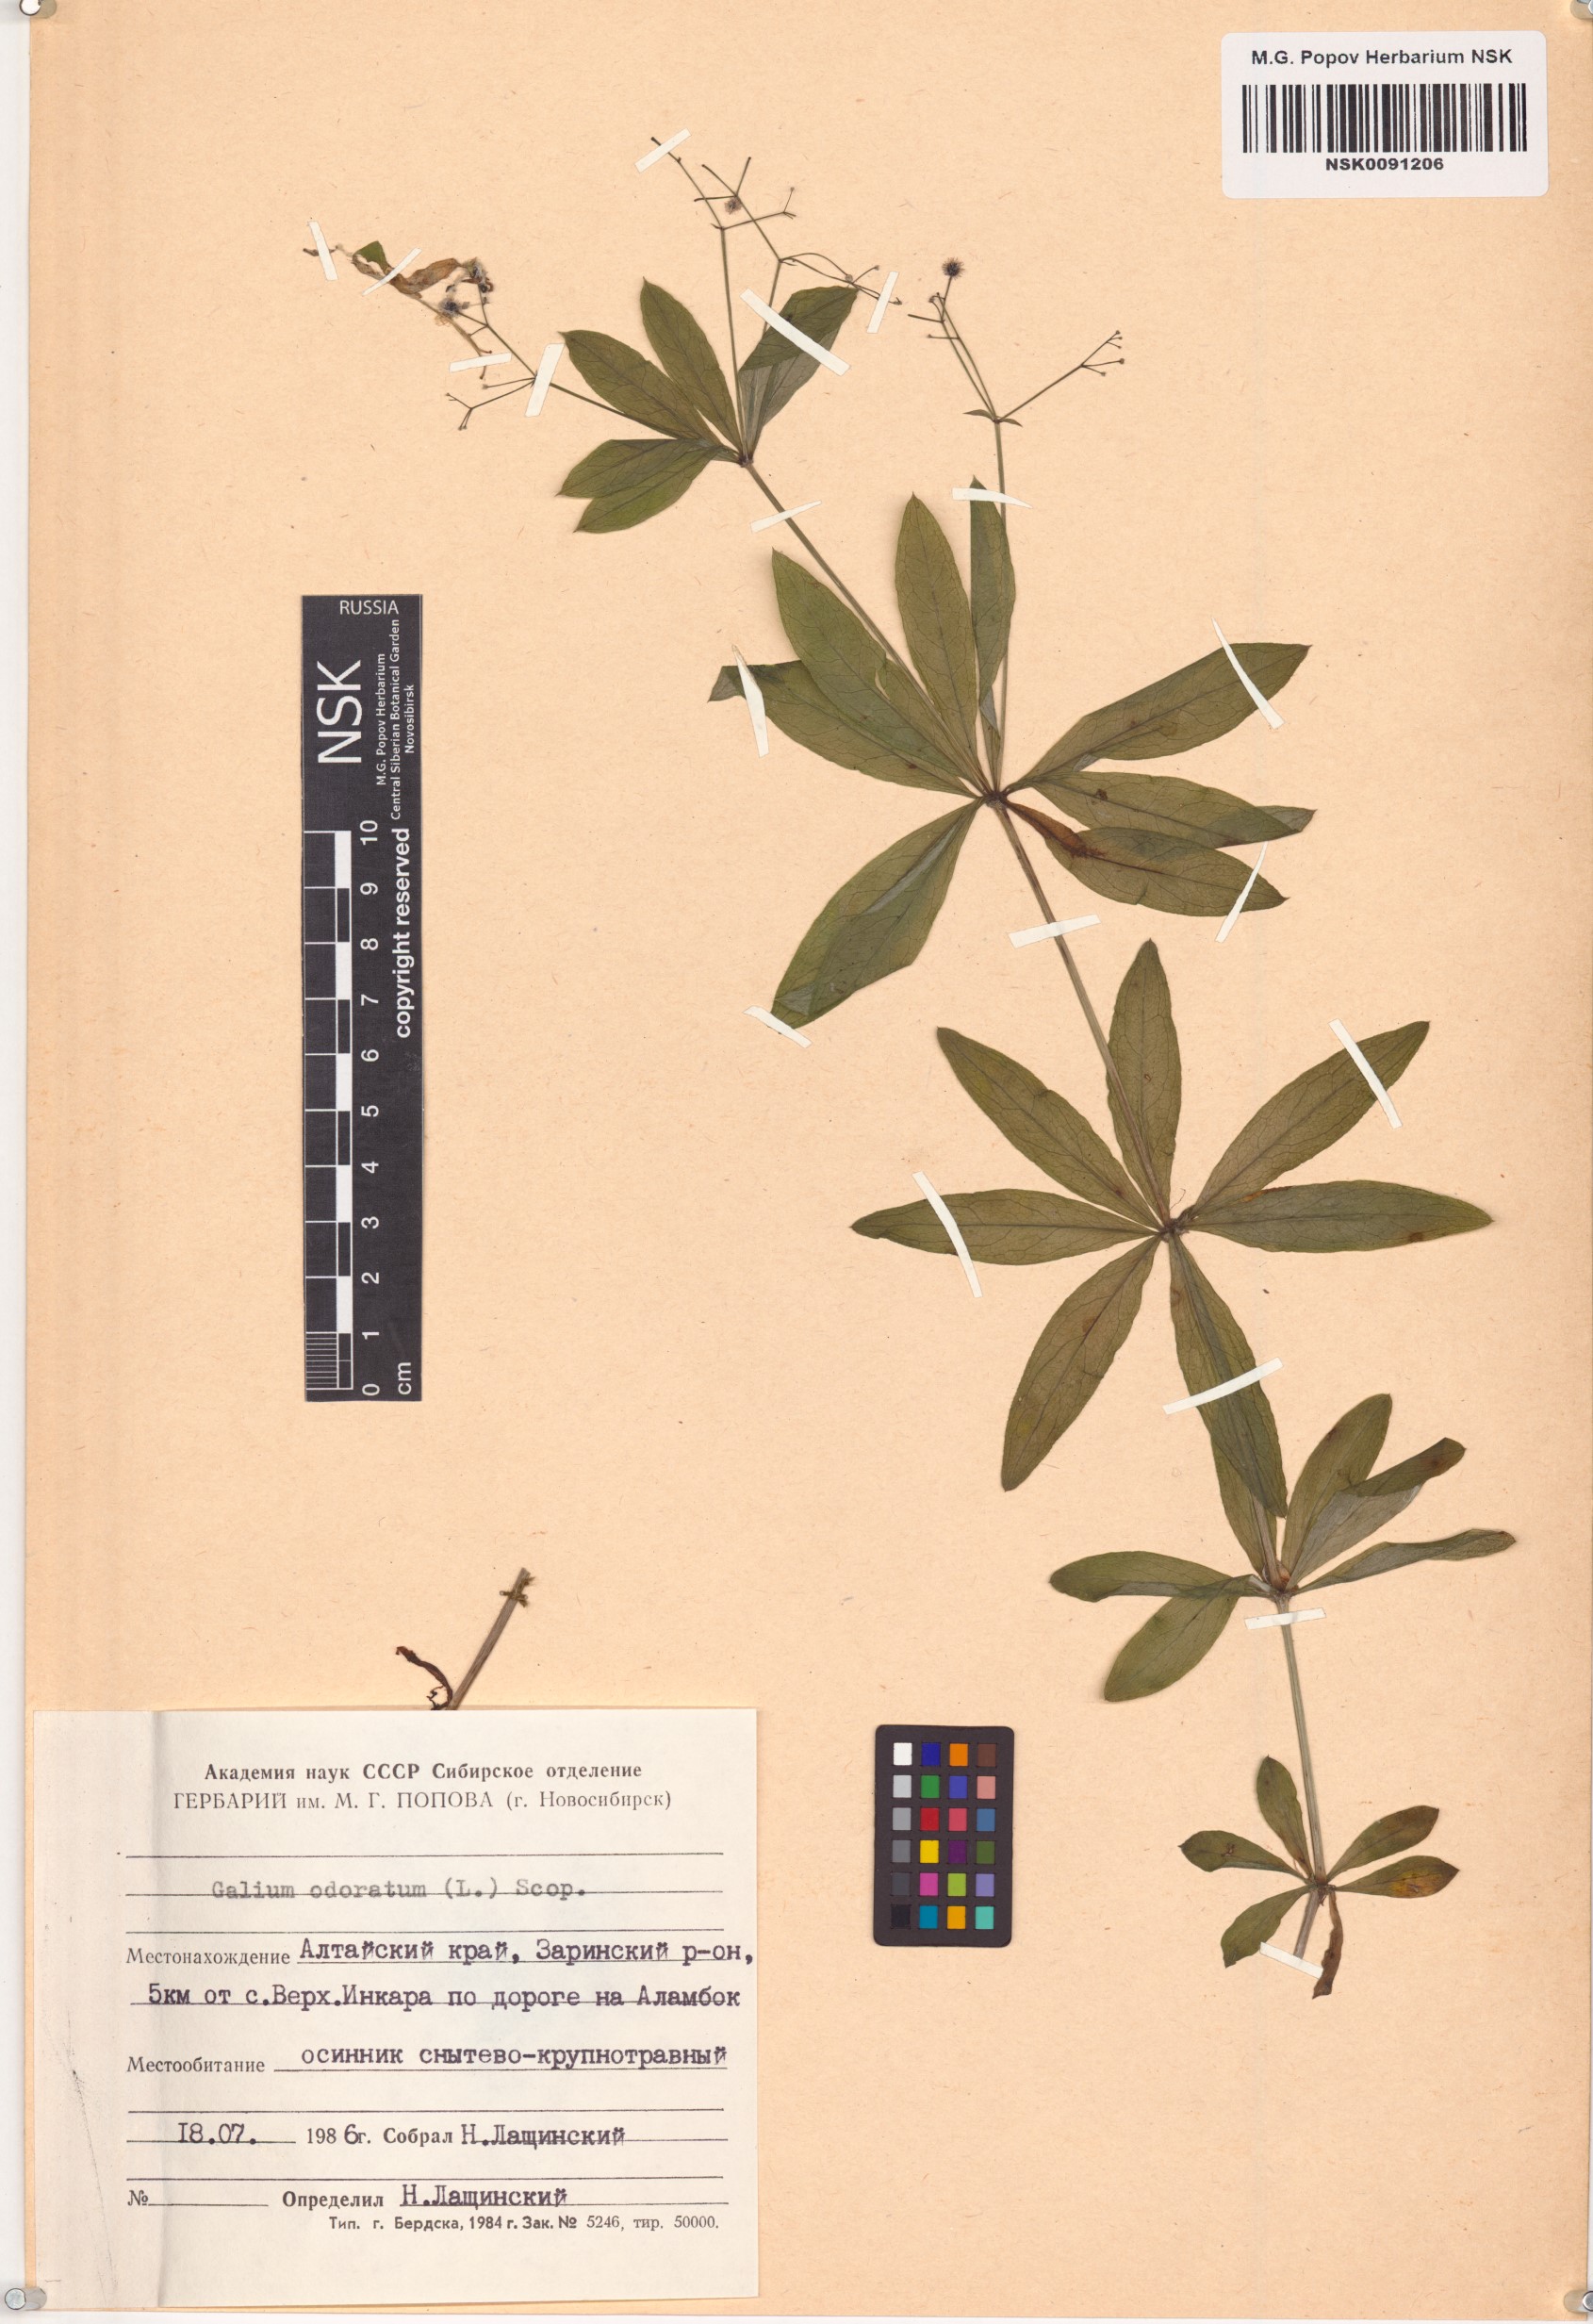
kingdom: Plantae
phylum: Tracheophyta
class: Magnoliopsida
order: Gentianales
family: Rubiaceae
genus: Galium
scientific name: Galium odoratum
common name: Sweet woodruff
